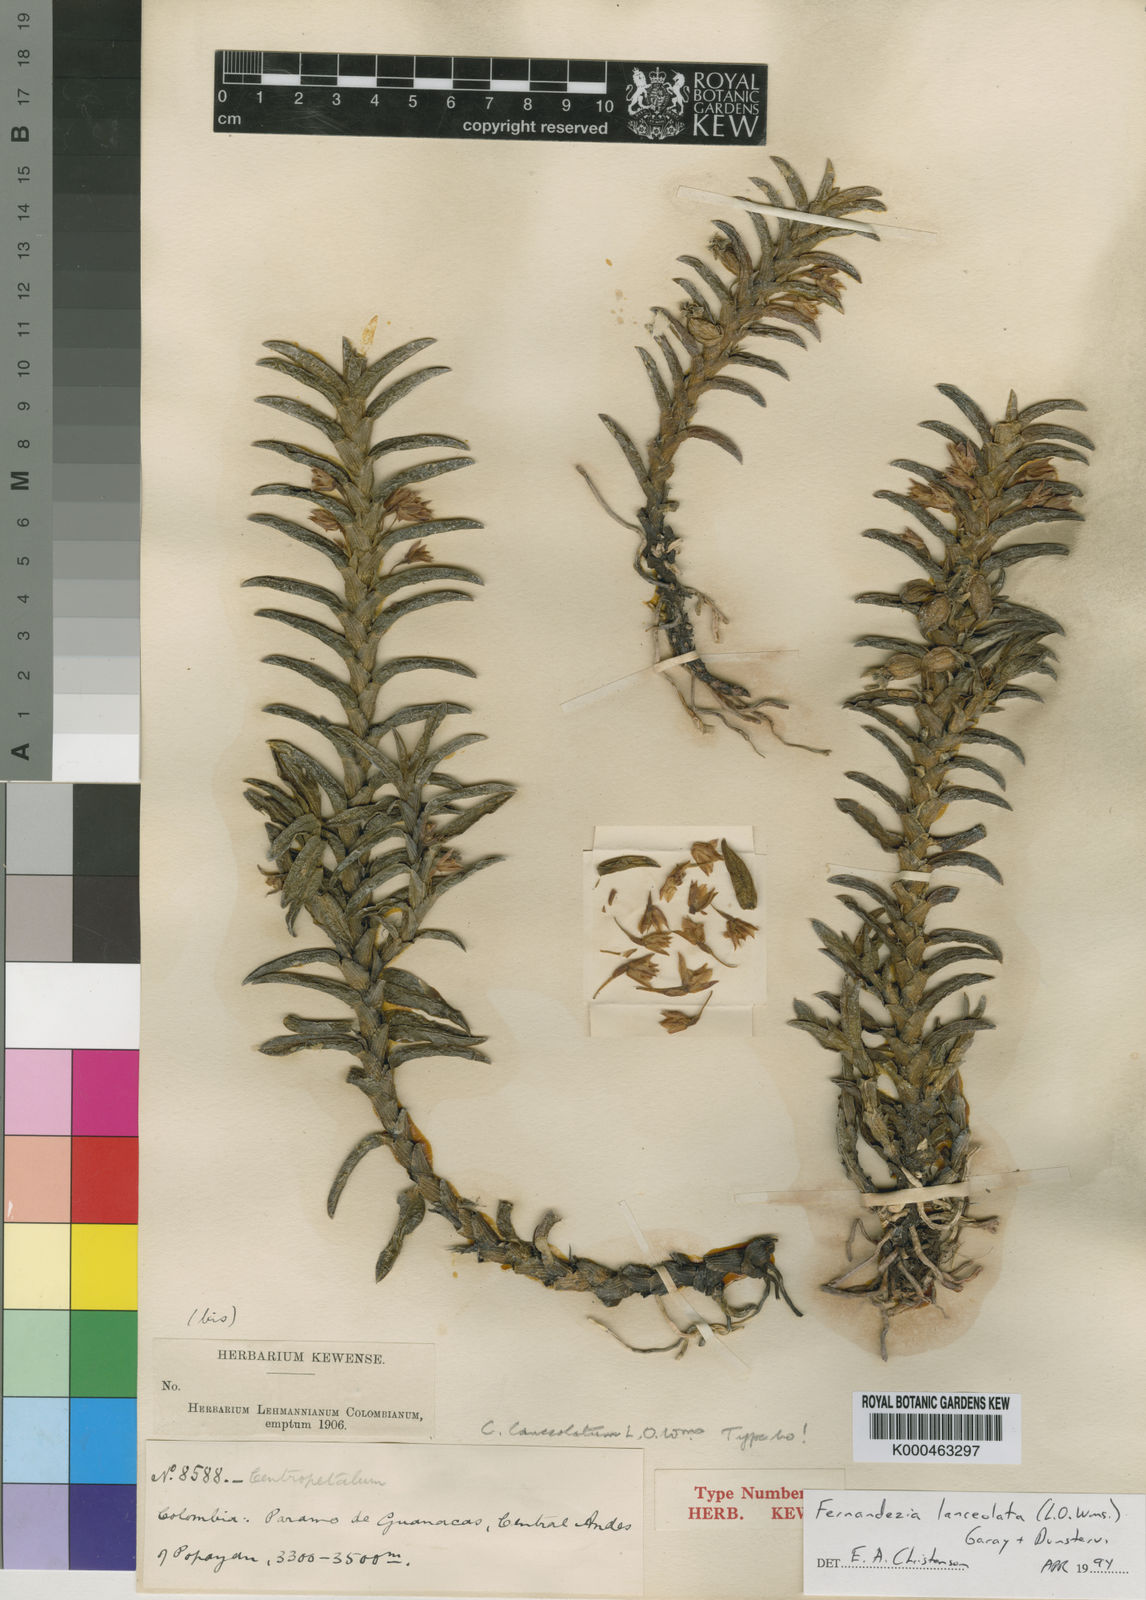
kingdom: Plantae
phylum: Tracheophyta
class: Liliopsida
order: Asparagales
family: Orchidaceae
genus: Fernandezia
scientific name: Fernandezia sanguinea
